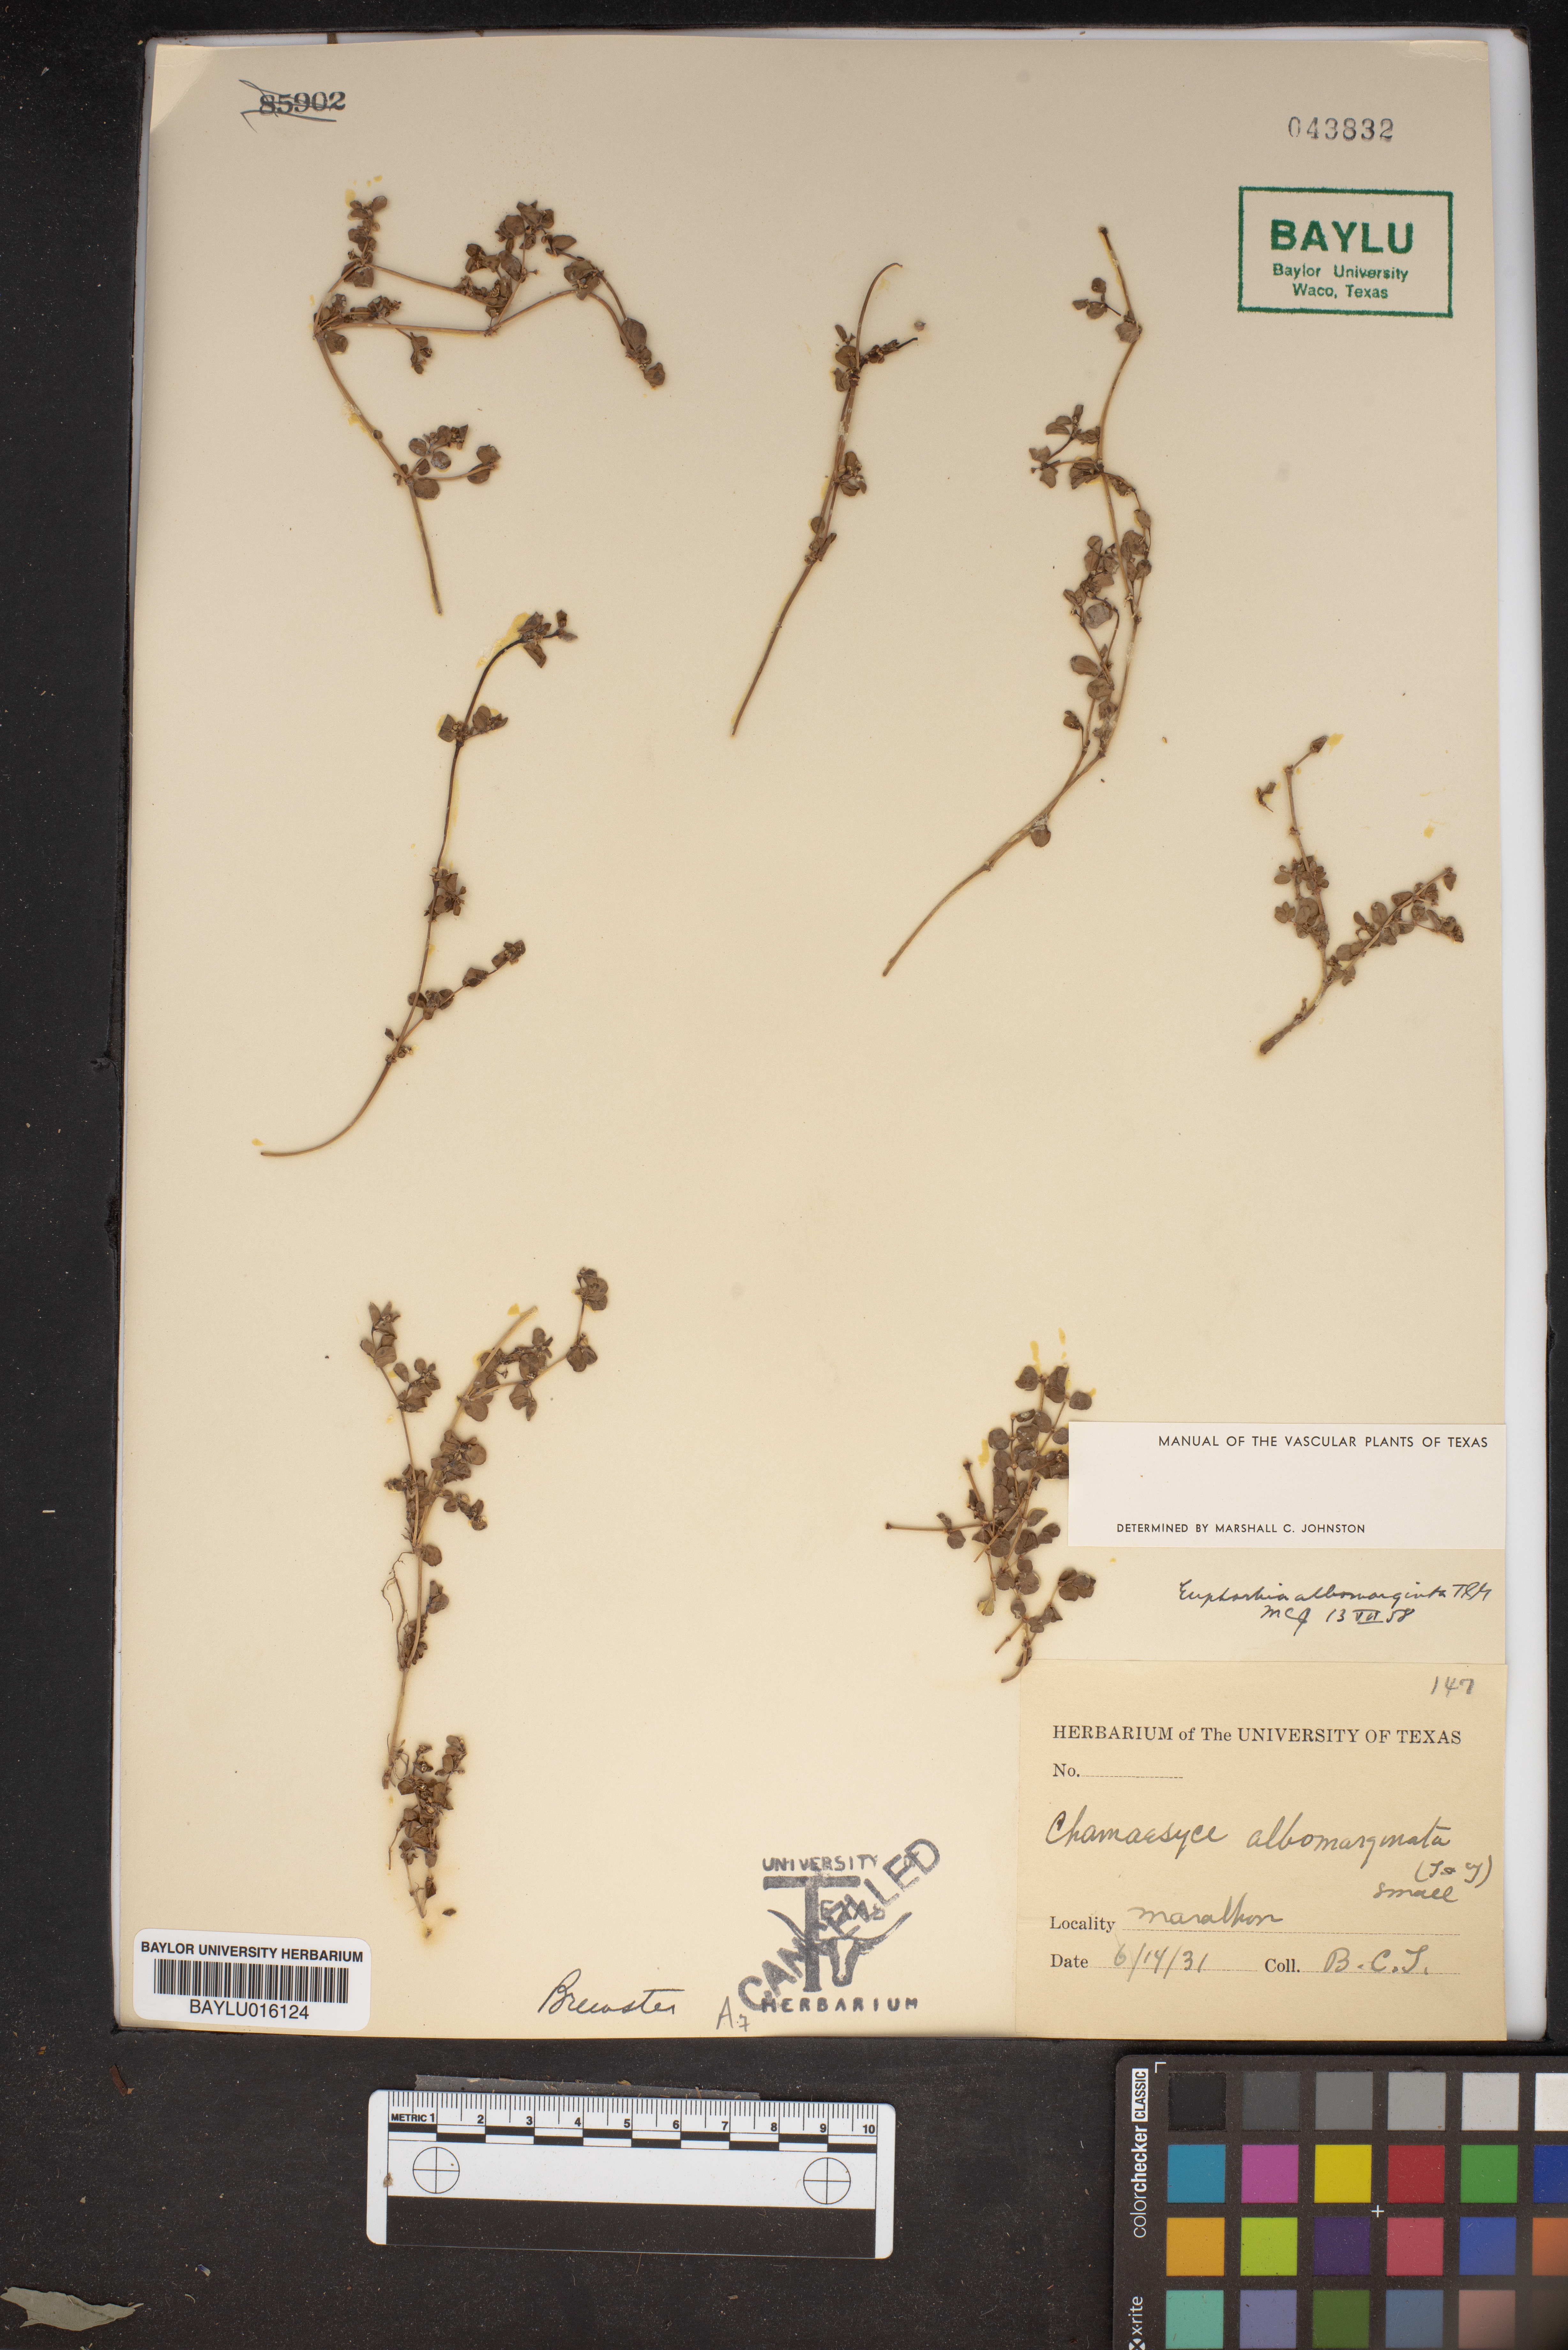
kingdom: Plantae
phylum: Tracheophyta
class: Magnoliopsida
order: Malpighiales
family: Euphorbiaceae
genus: Euphorbia
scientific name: Euphorbia albomarginata
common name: Whitemargin sandmat
